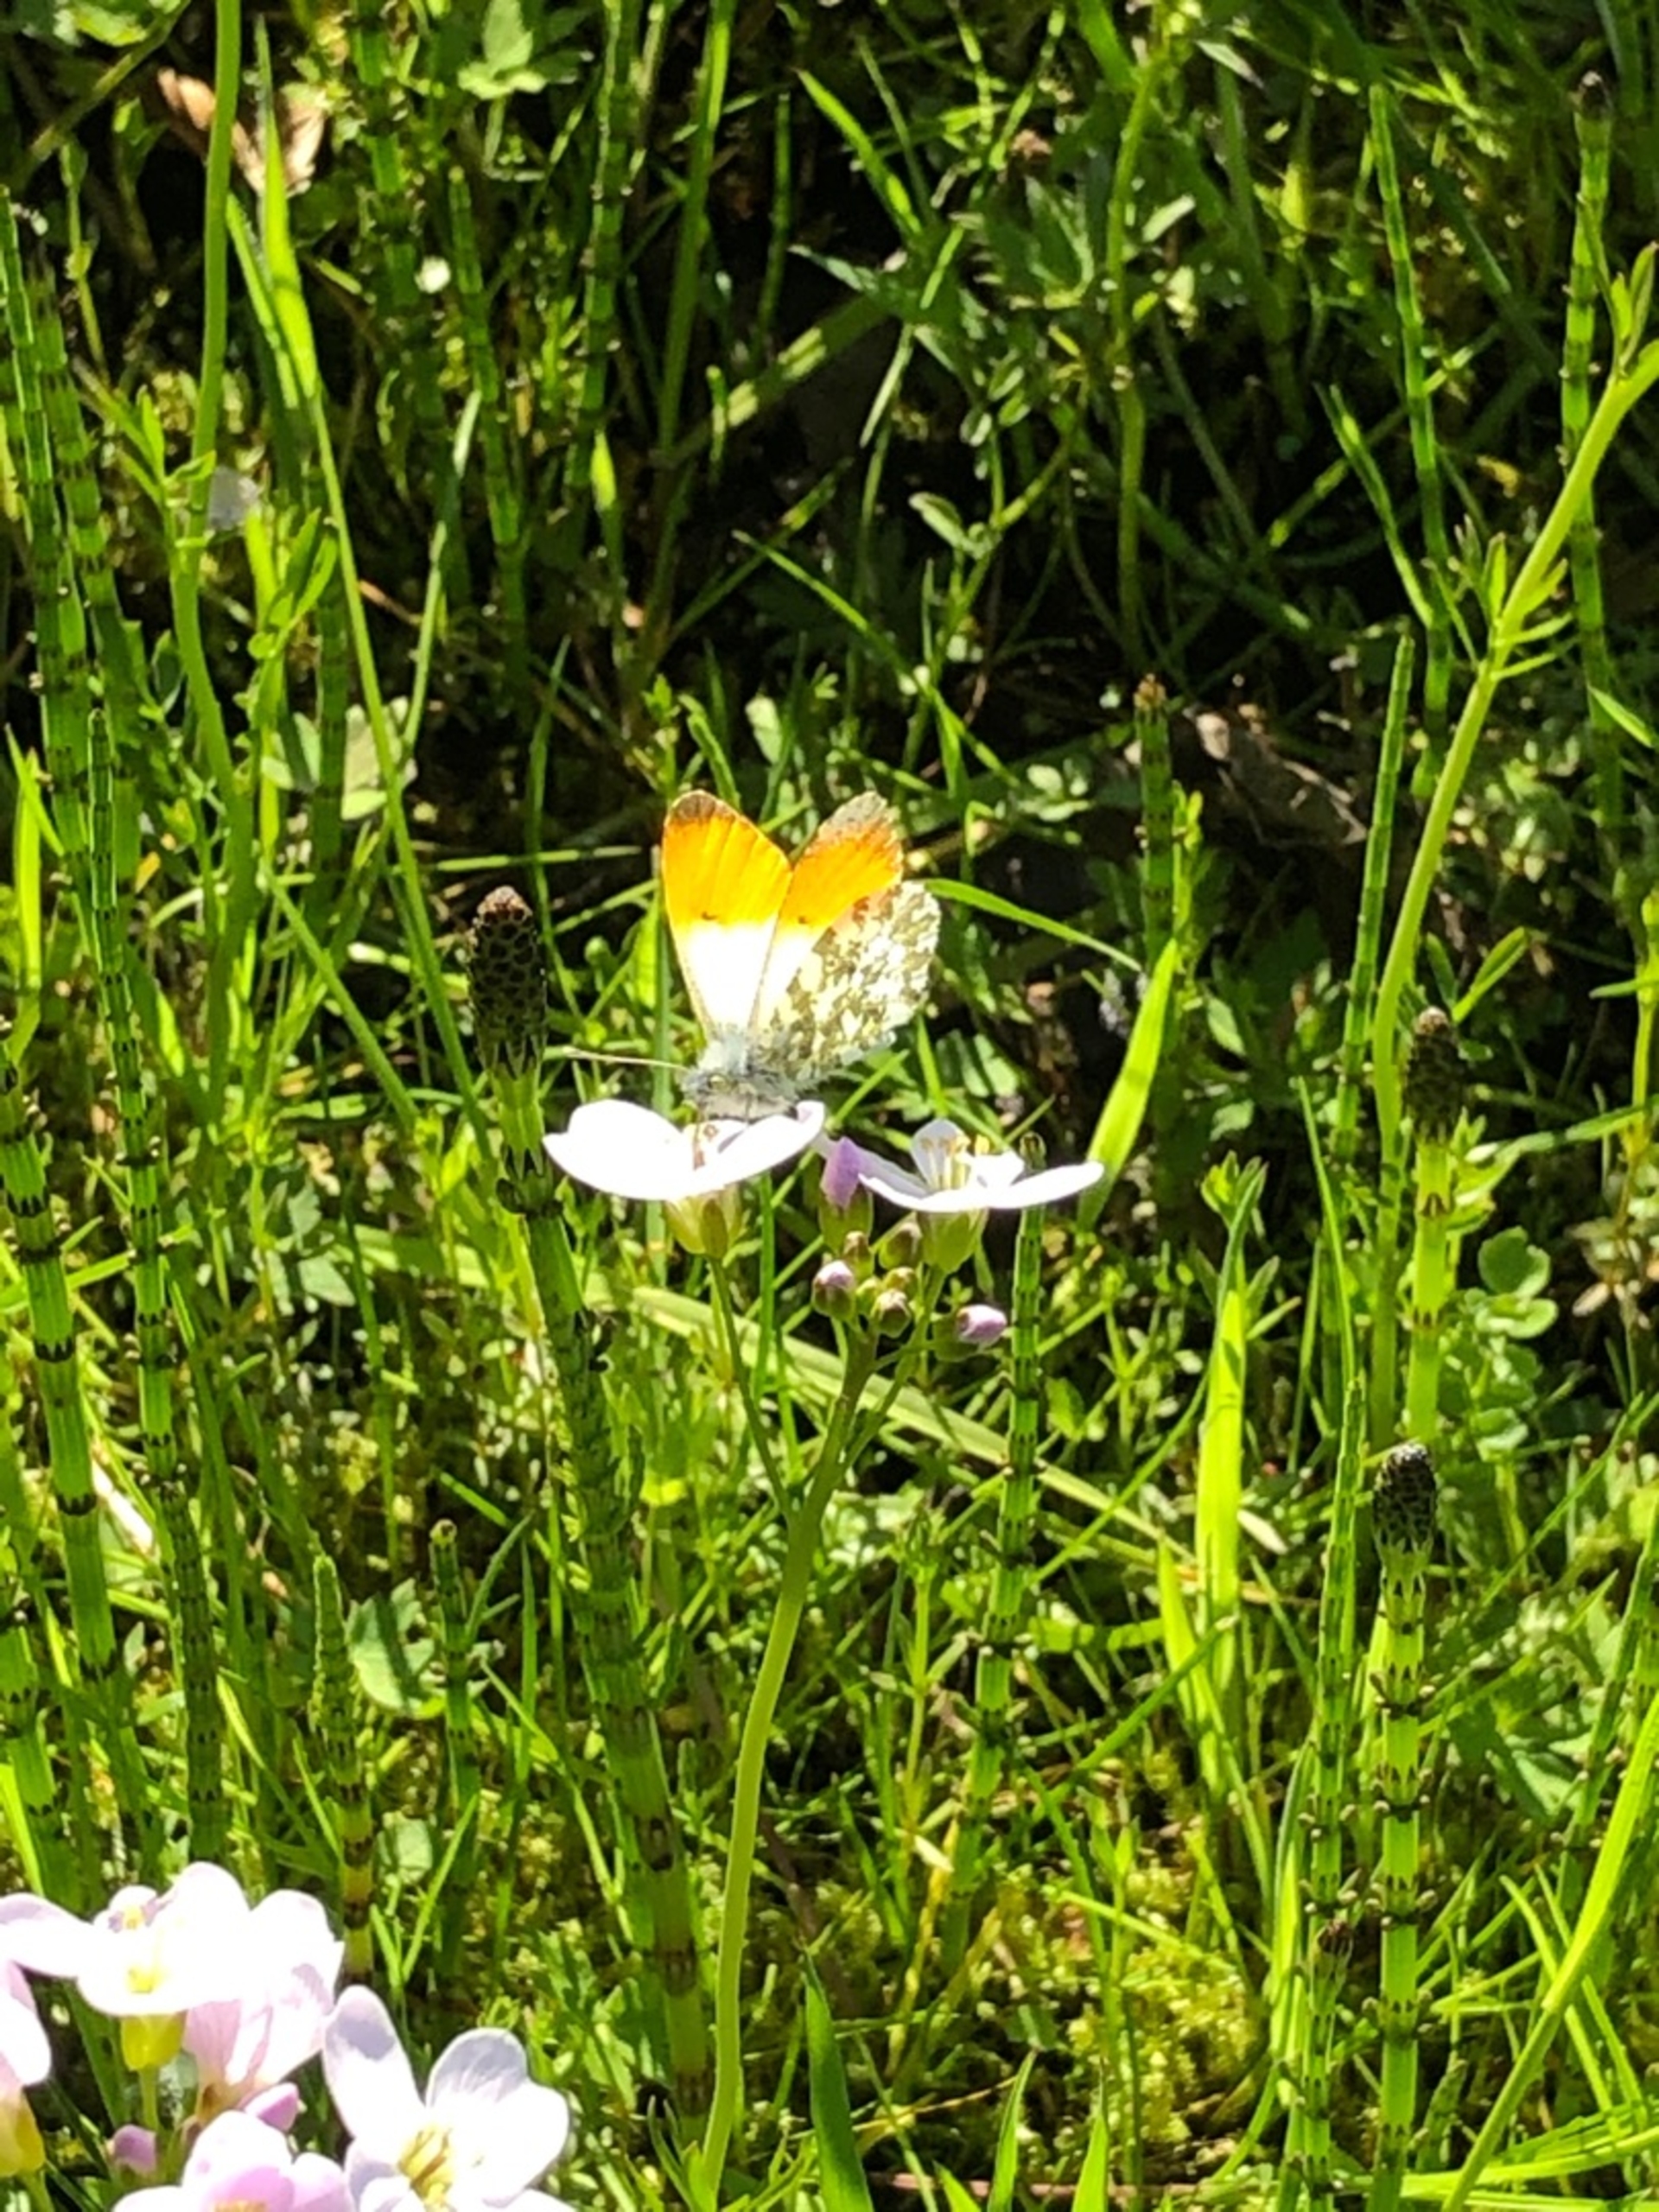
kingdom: Animalia
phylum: Arthropoda
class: Insecta
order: Lepidoptera
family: Pieridae
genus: Anthocharis
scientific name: Anthocharis cardamines
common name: Aurora
